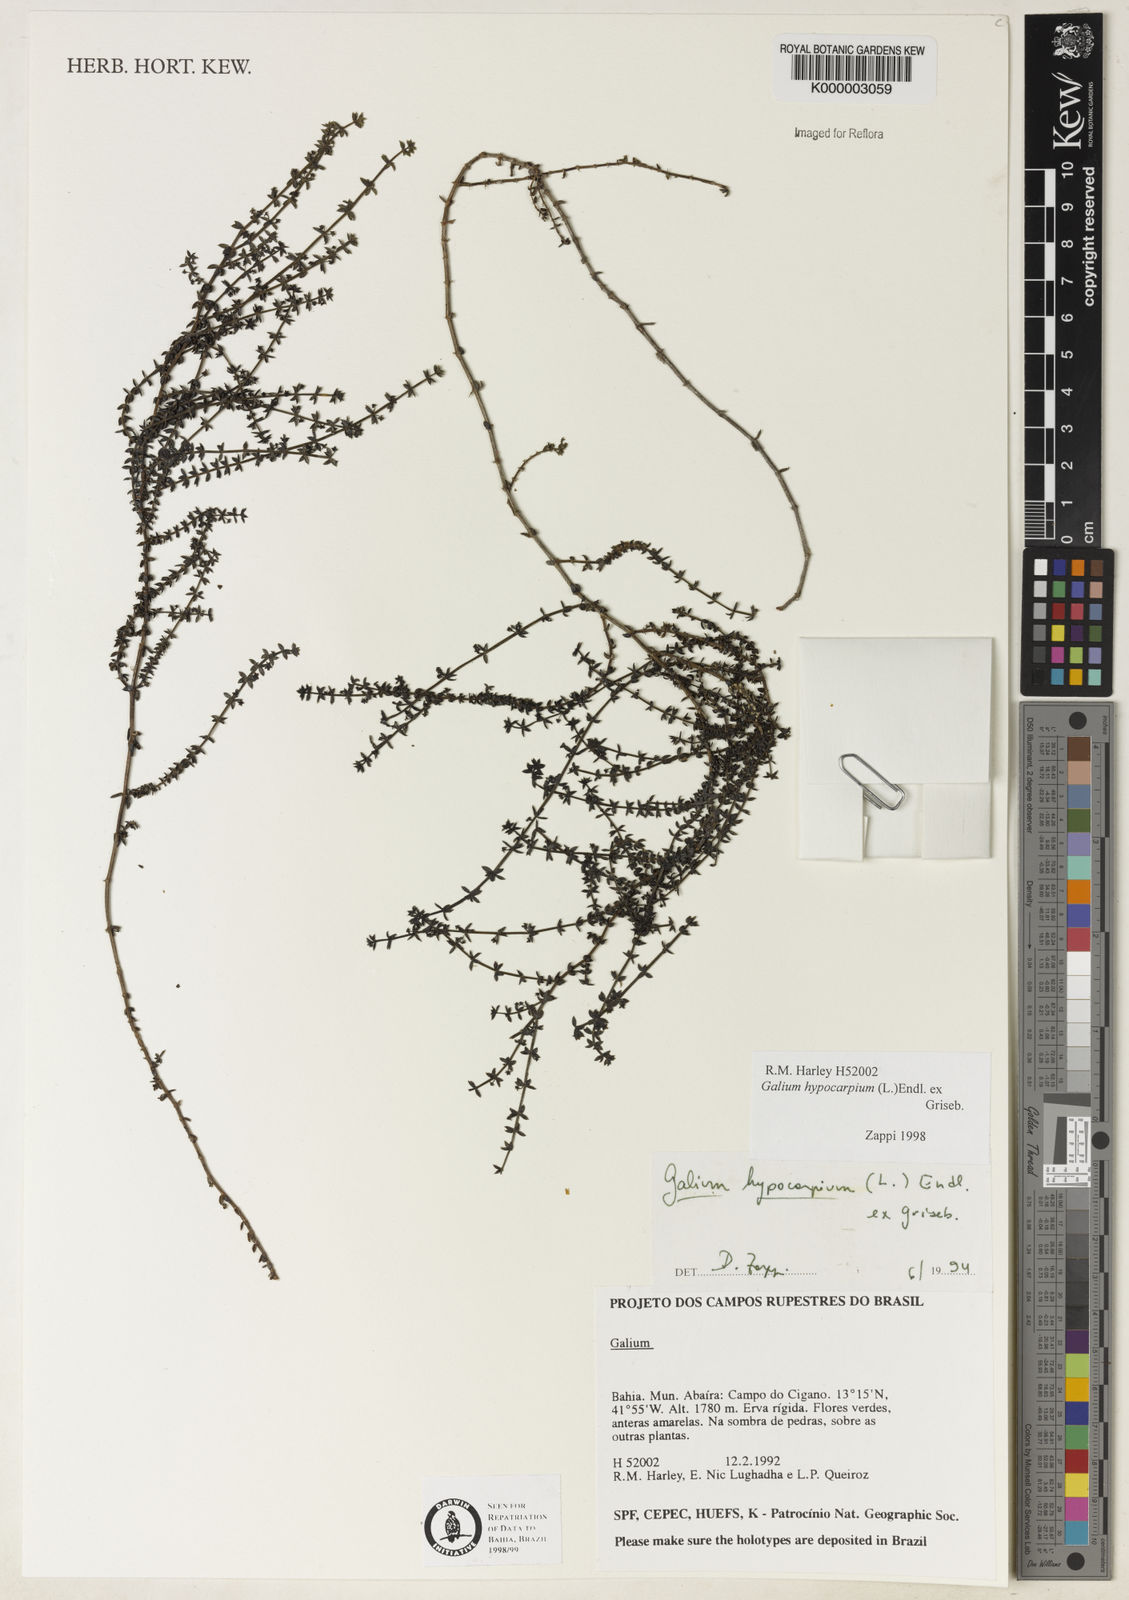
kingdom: Plantae
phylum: Tracheophyta
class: Magnoliopsida
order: Gentianales
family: Rubiaceae
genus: Galium
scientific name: Galium hypocarpium
